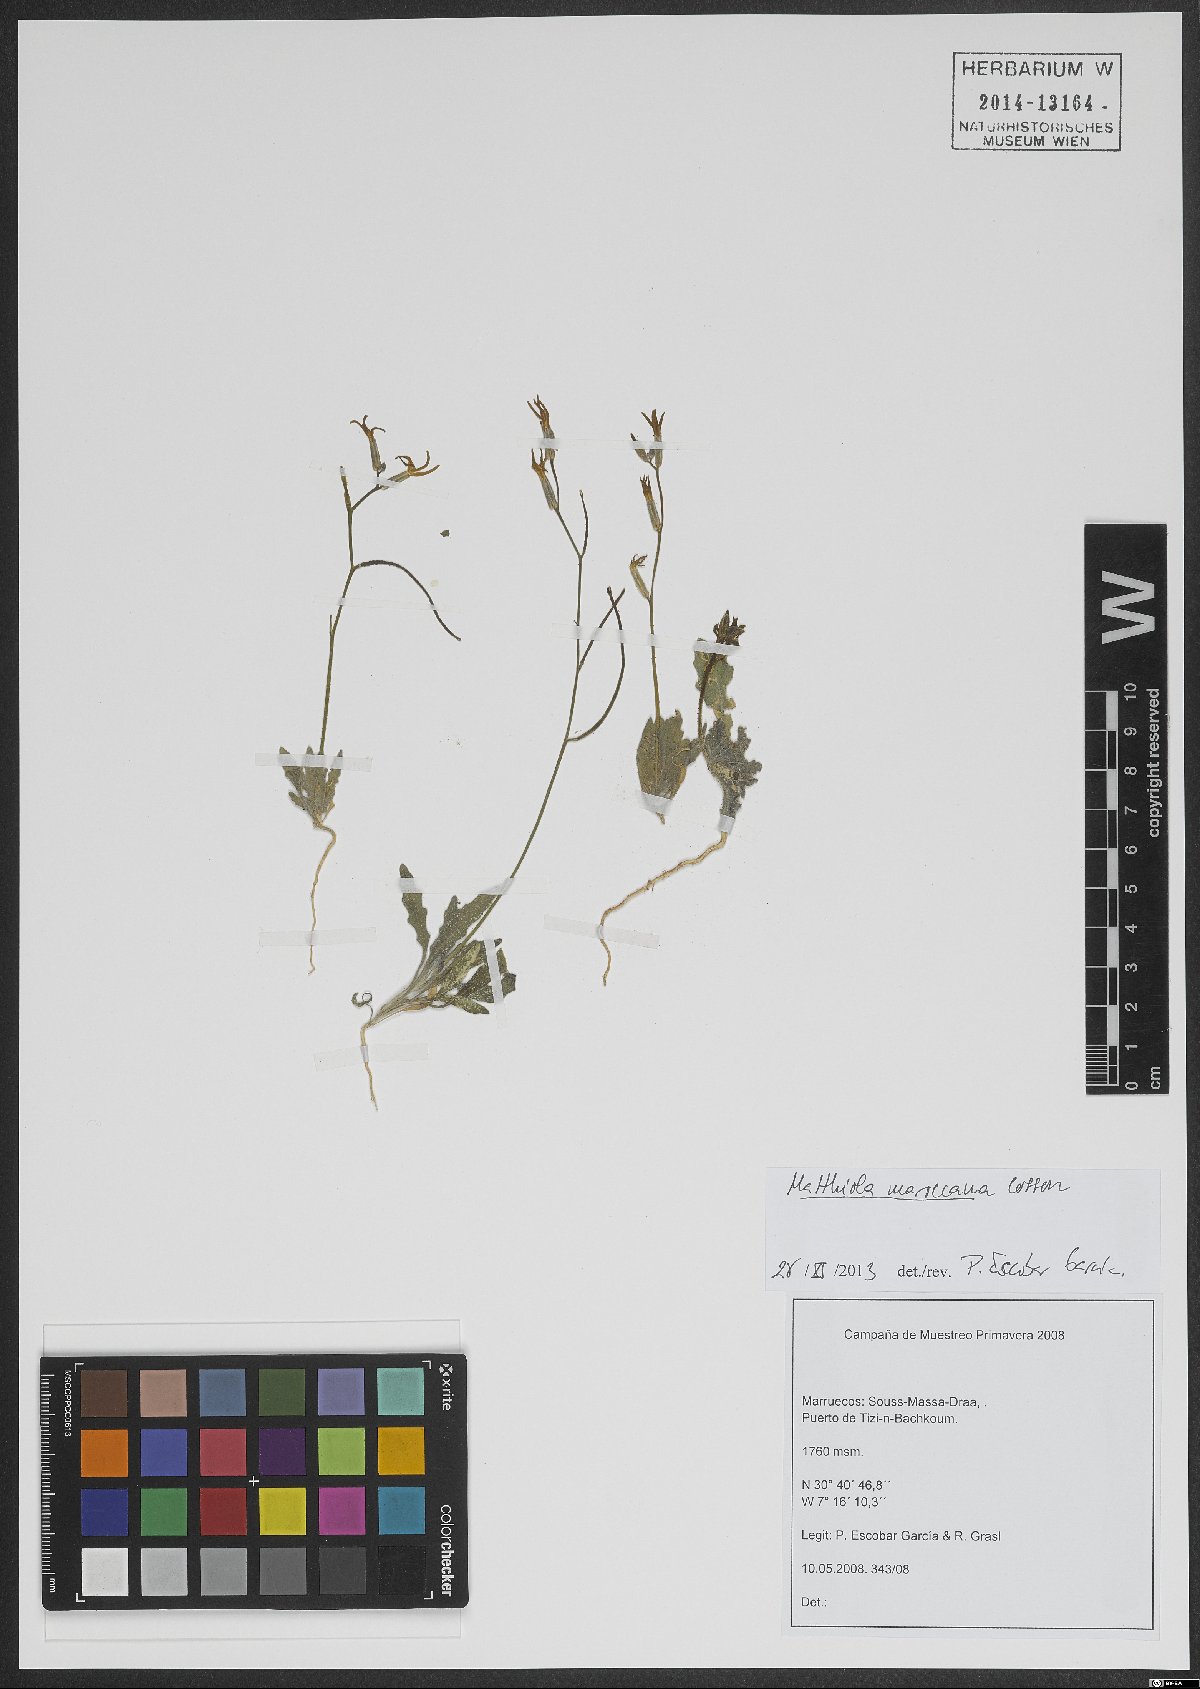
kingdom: Plantae
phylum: Tracheophyta
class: Magnoliopsida
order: Brassicales
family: Brassicaceae
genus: Matthiola
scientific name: Matthiola maroccana
